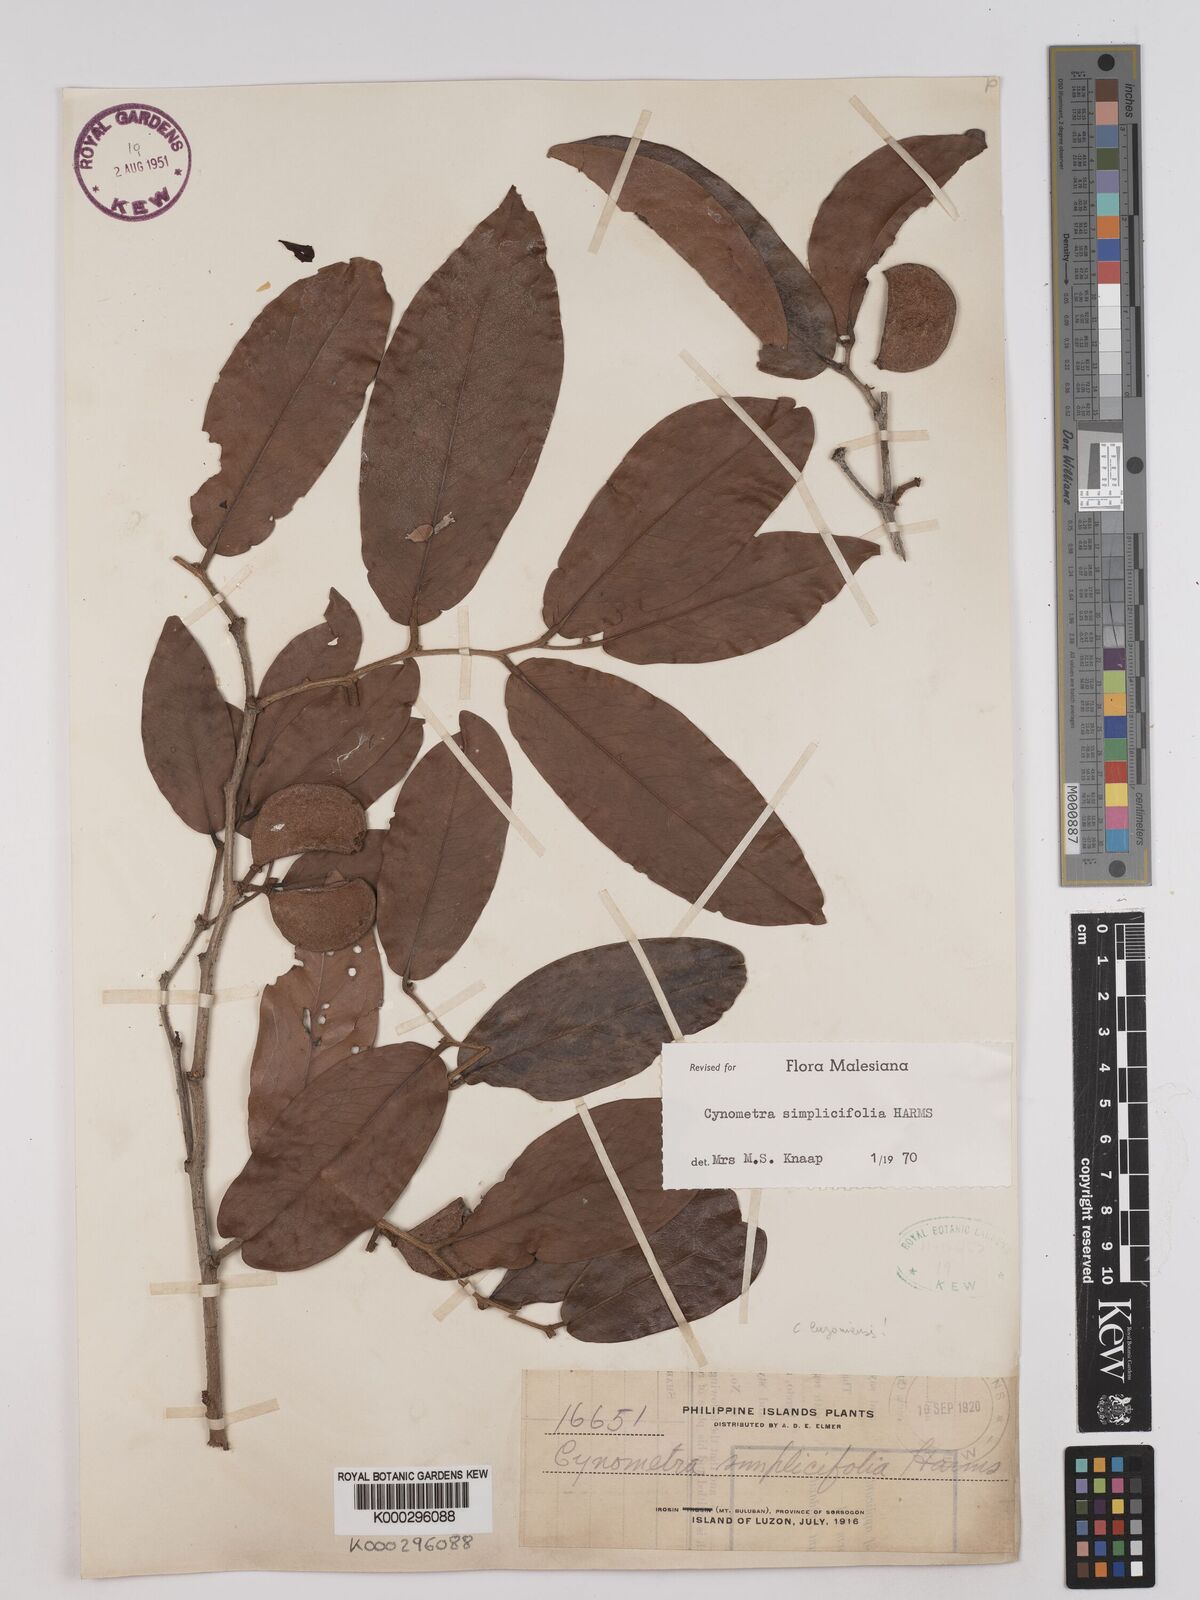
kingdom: Plantae
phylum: Tracheophyta
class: Magnoliopsida
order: Fabales
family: Fabaceae
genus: Cynometra
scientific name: Cynometra simplicifolia
